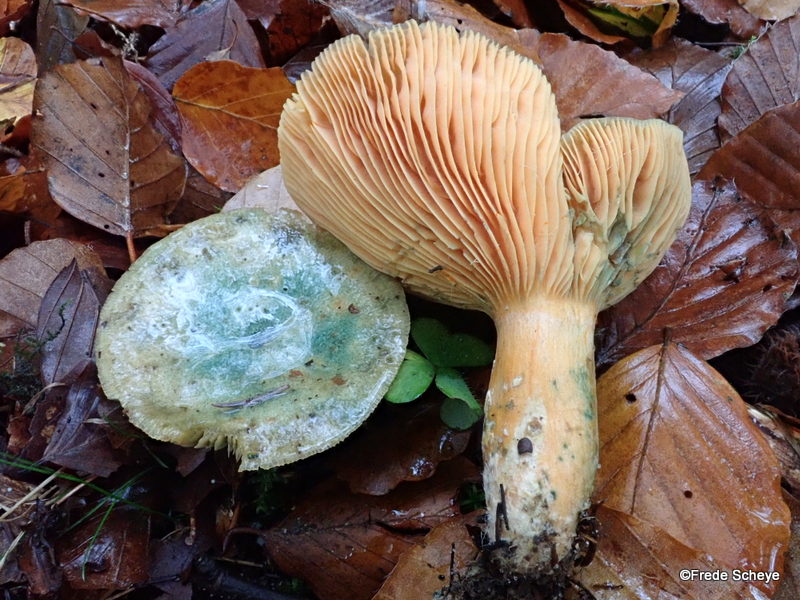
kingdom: Fungi
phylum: Basidiomycota
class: Agaricomycetes
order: Russulales
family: Russulaceae
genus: Lactarius
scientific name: Lactarius deterrimus
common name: gran-mælkehat
